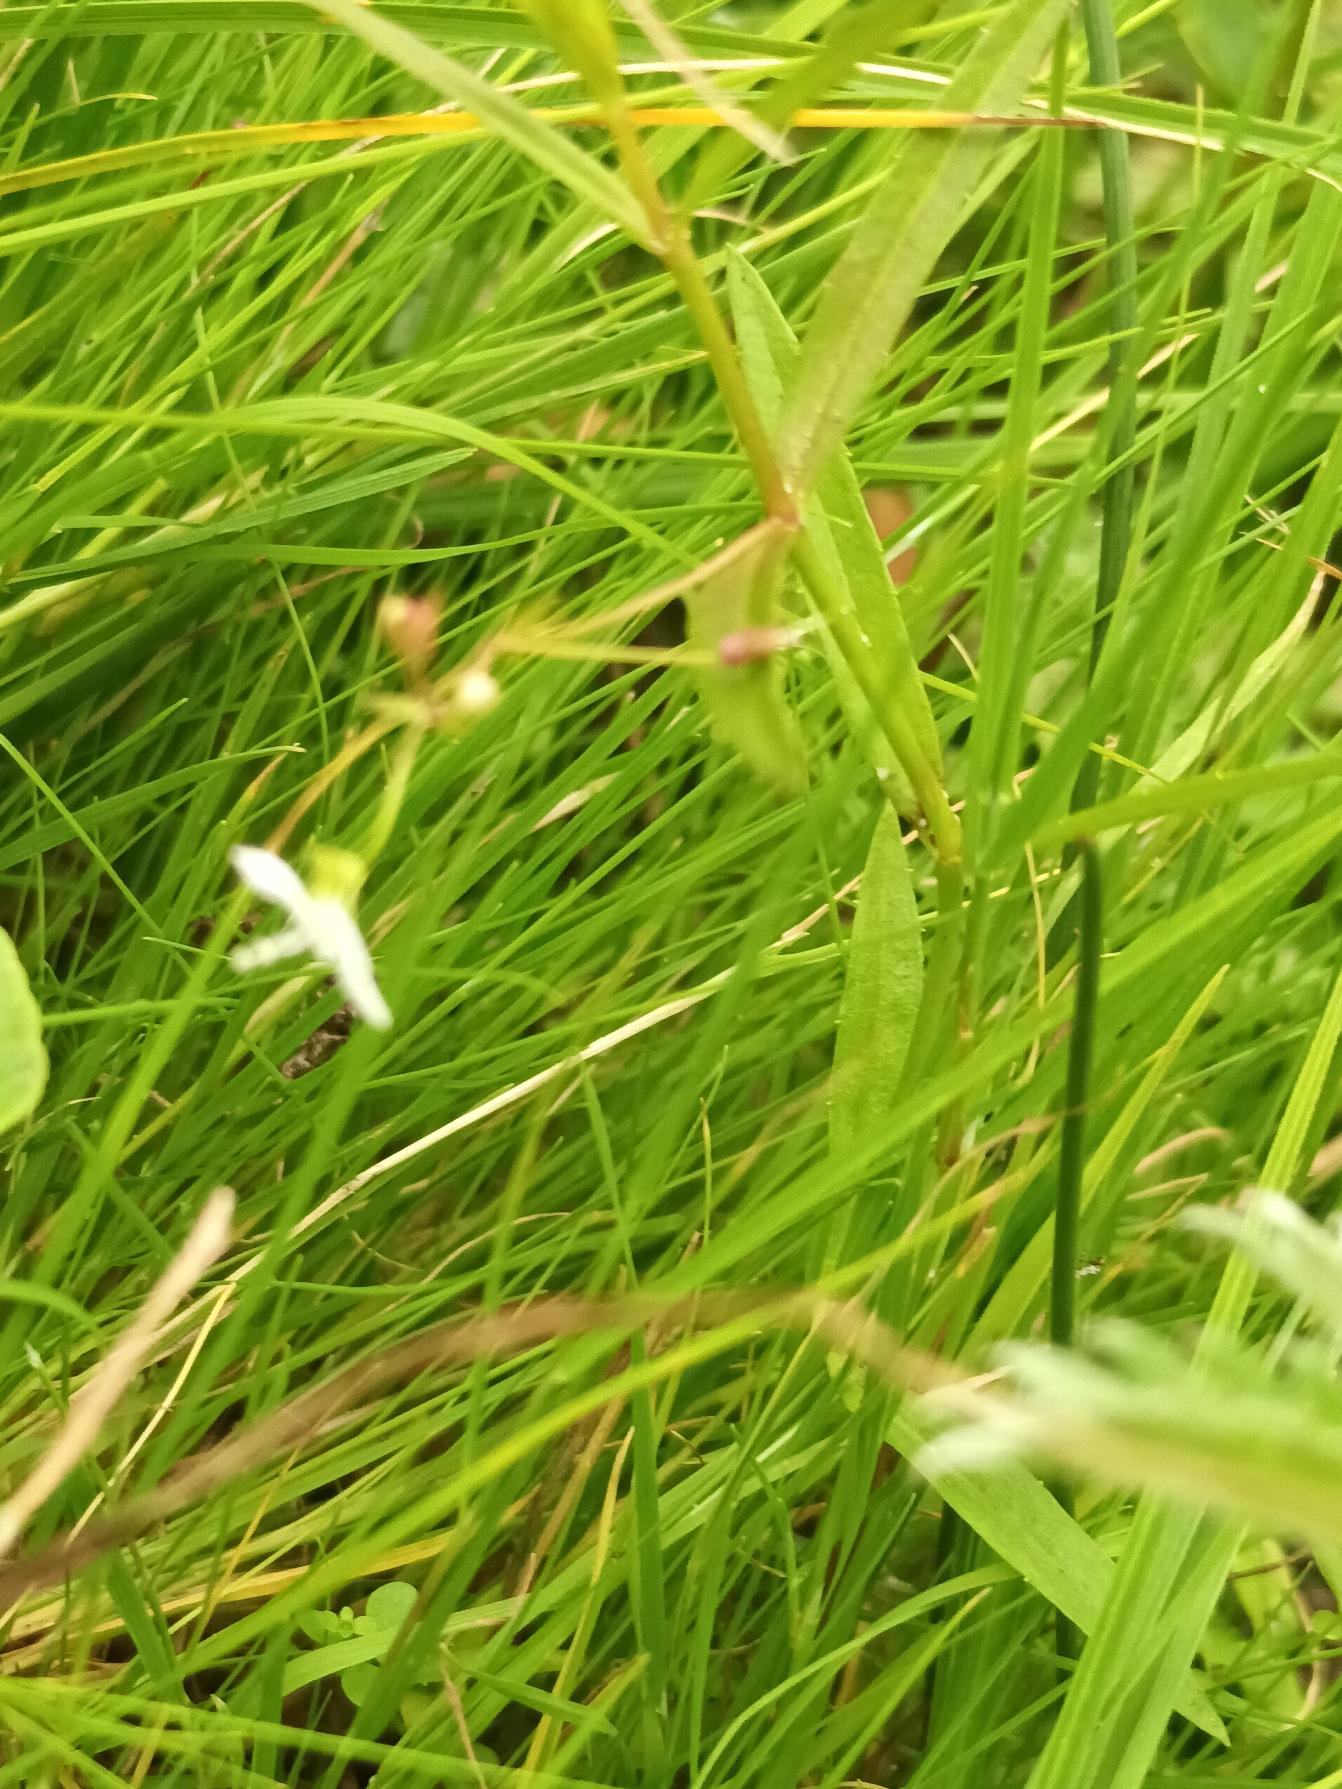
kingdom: Plantae
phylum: Tracheophyta
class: Magnoliopsida
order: Lamiales
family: Plantaginaceae
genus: Veronica
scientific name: Veronica scutellata
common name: Smalbladet ærenpris
